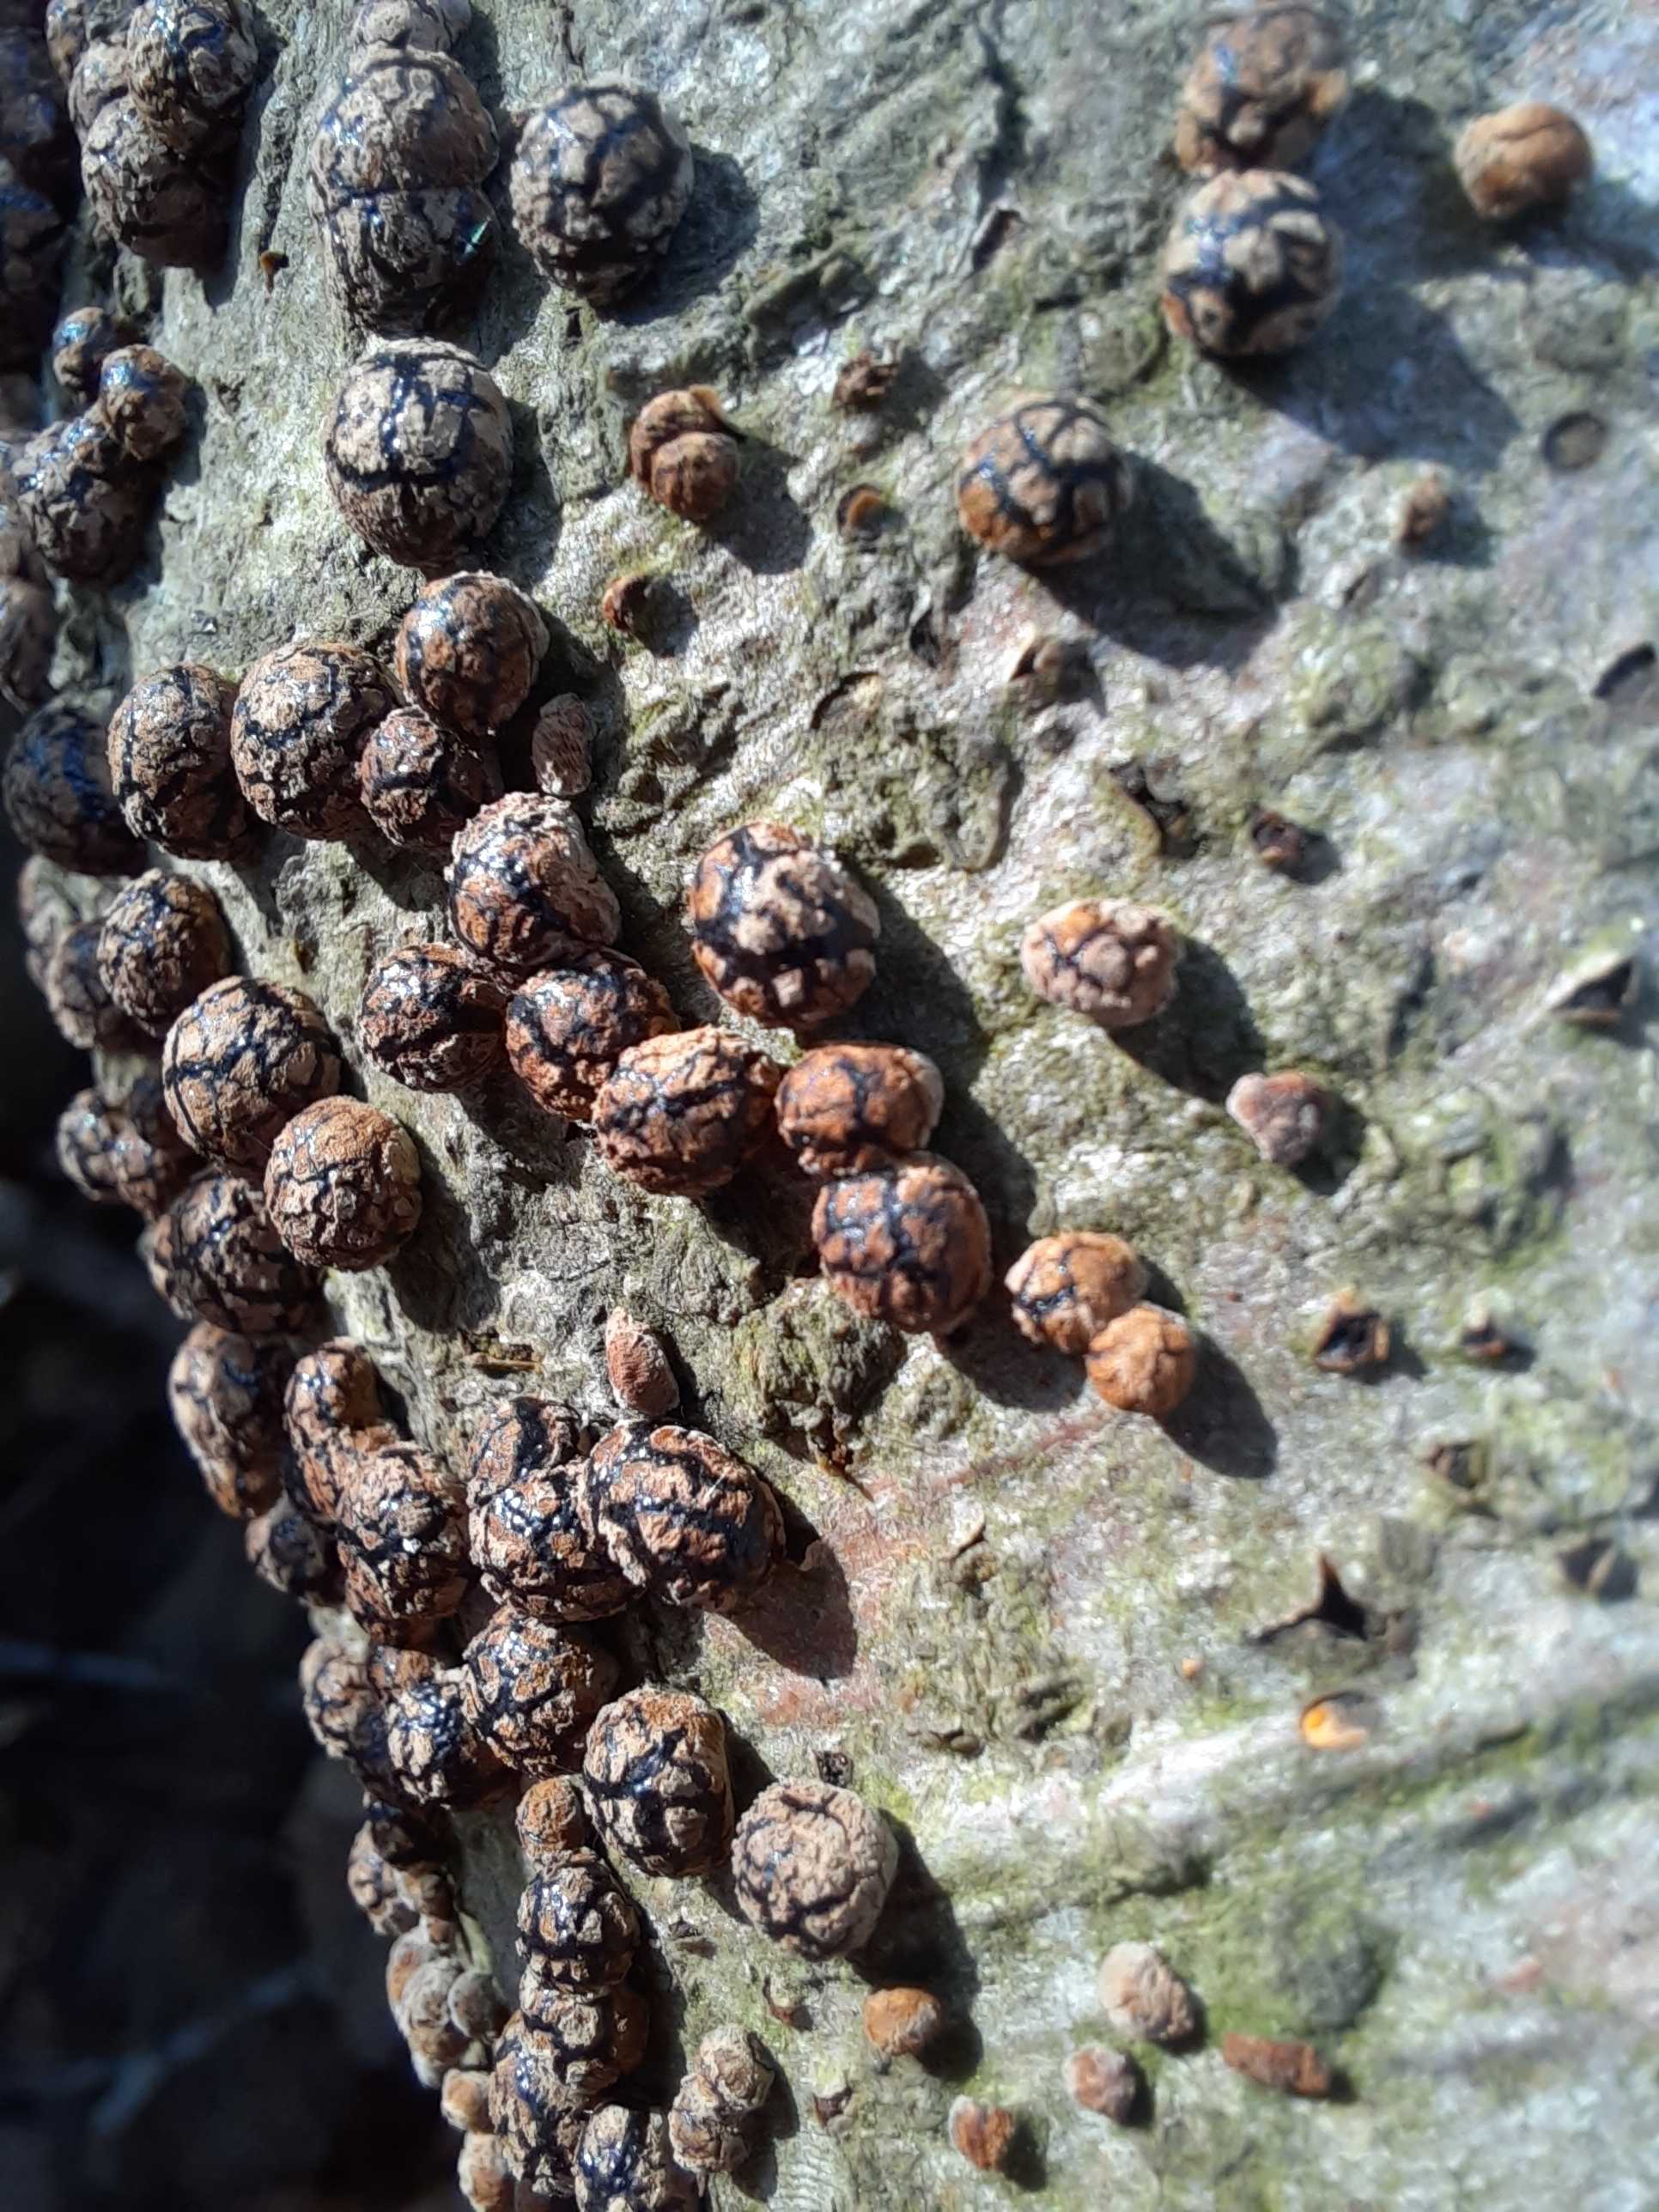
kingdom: Fungi
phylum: Ascomycota
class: Sordariomycetes
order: Xylariales
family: Hypoxylaceae
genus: Hypoxylon
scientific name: Hypoxylon fragiforme
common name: kuljordbær
